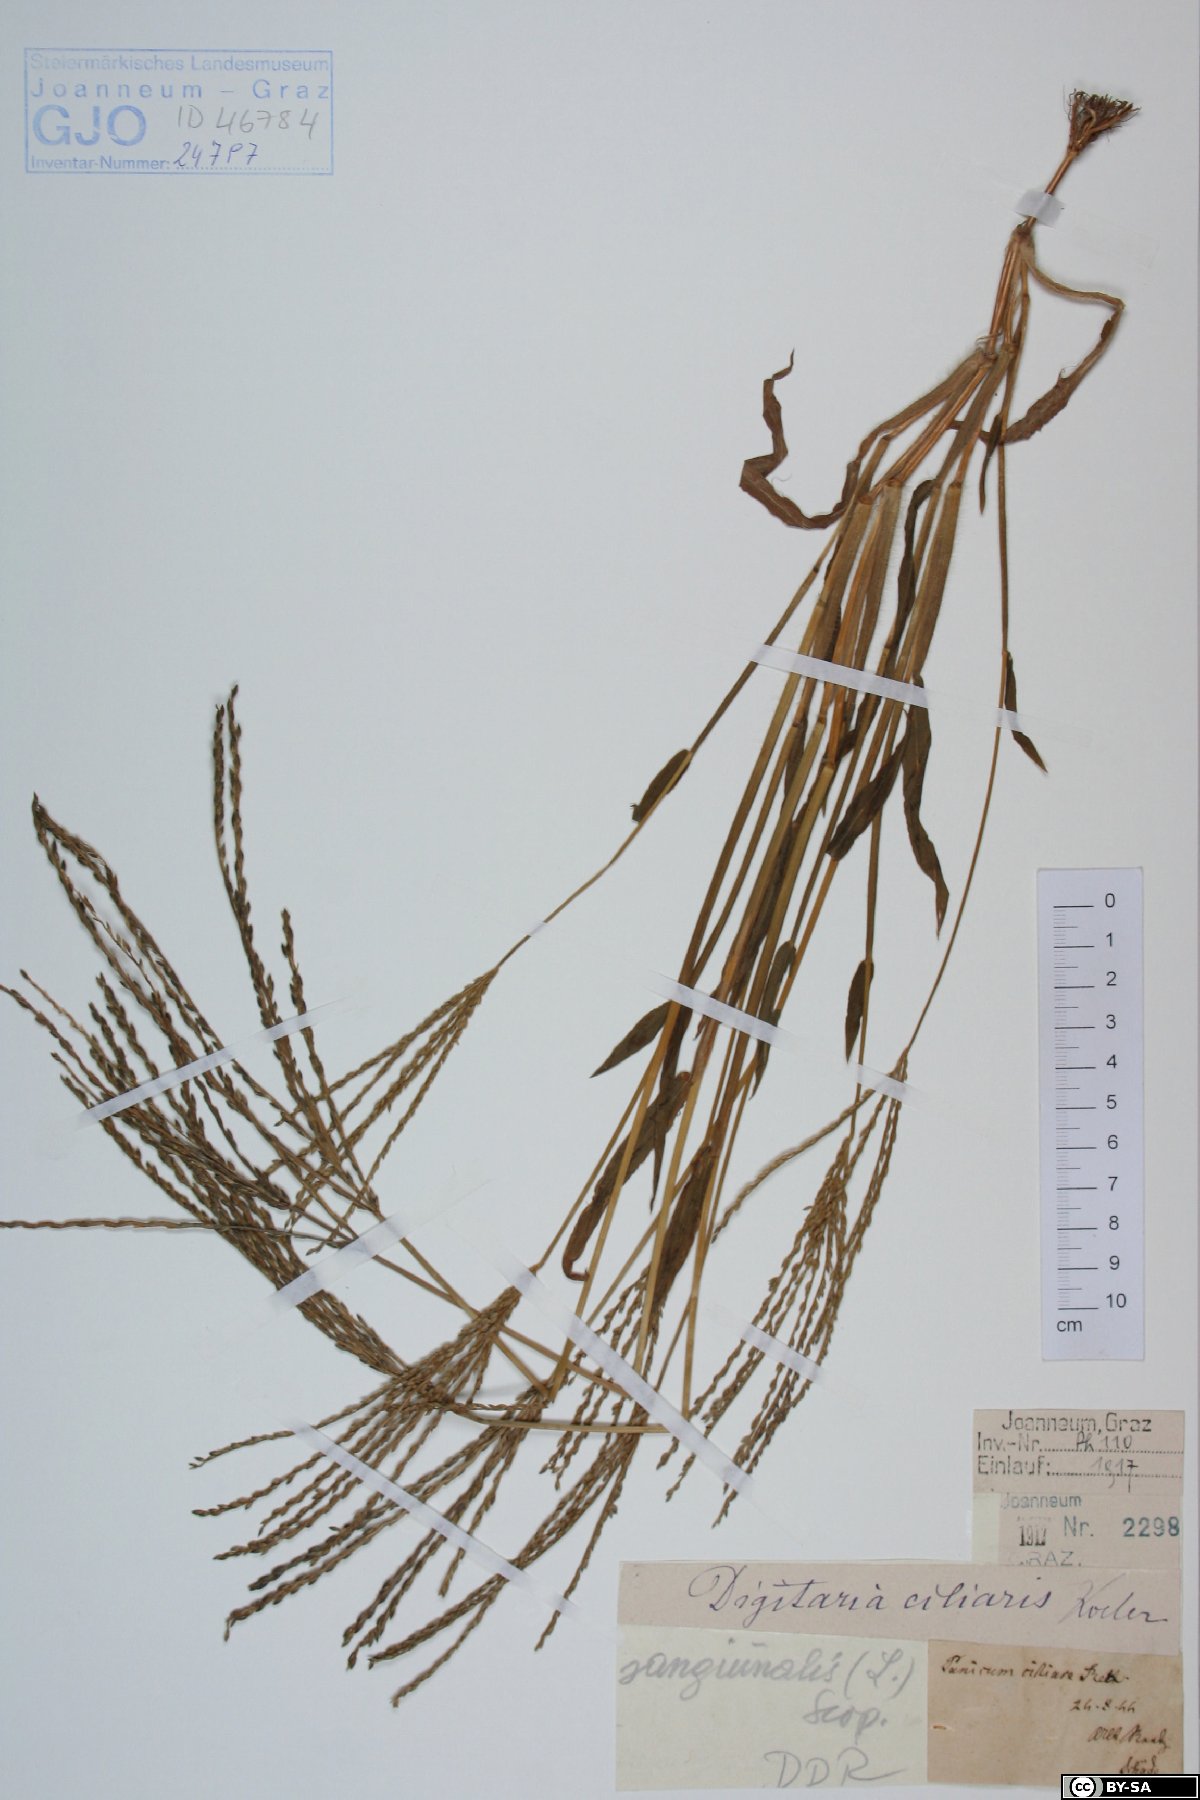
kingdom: Plantae
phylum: Tracheophyta
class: Liliopsida
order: Poales
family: Poaceae
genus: Digitaria
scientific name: Digitaria ciliaris
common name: Tropical finger-grass
